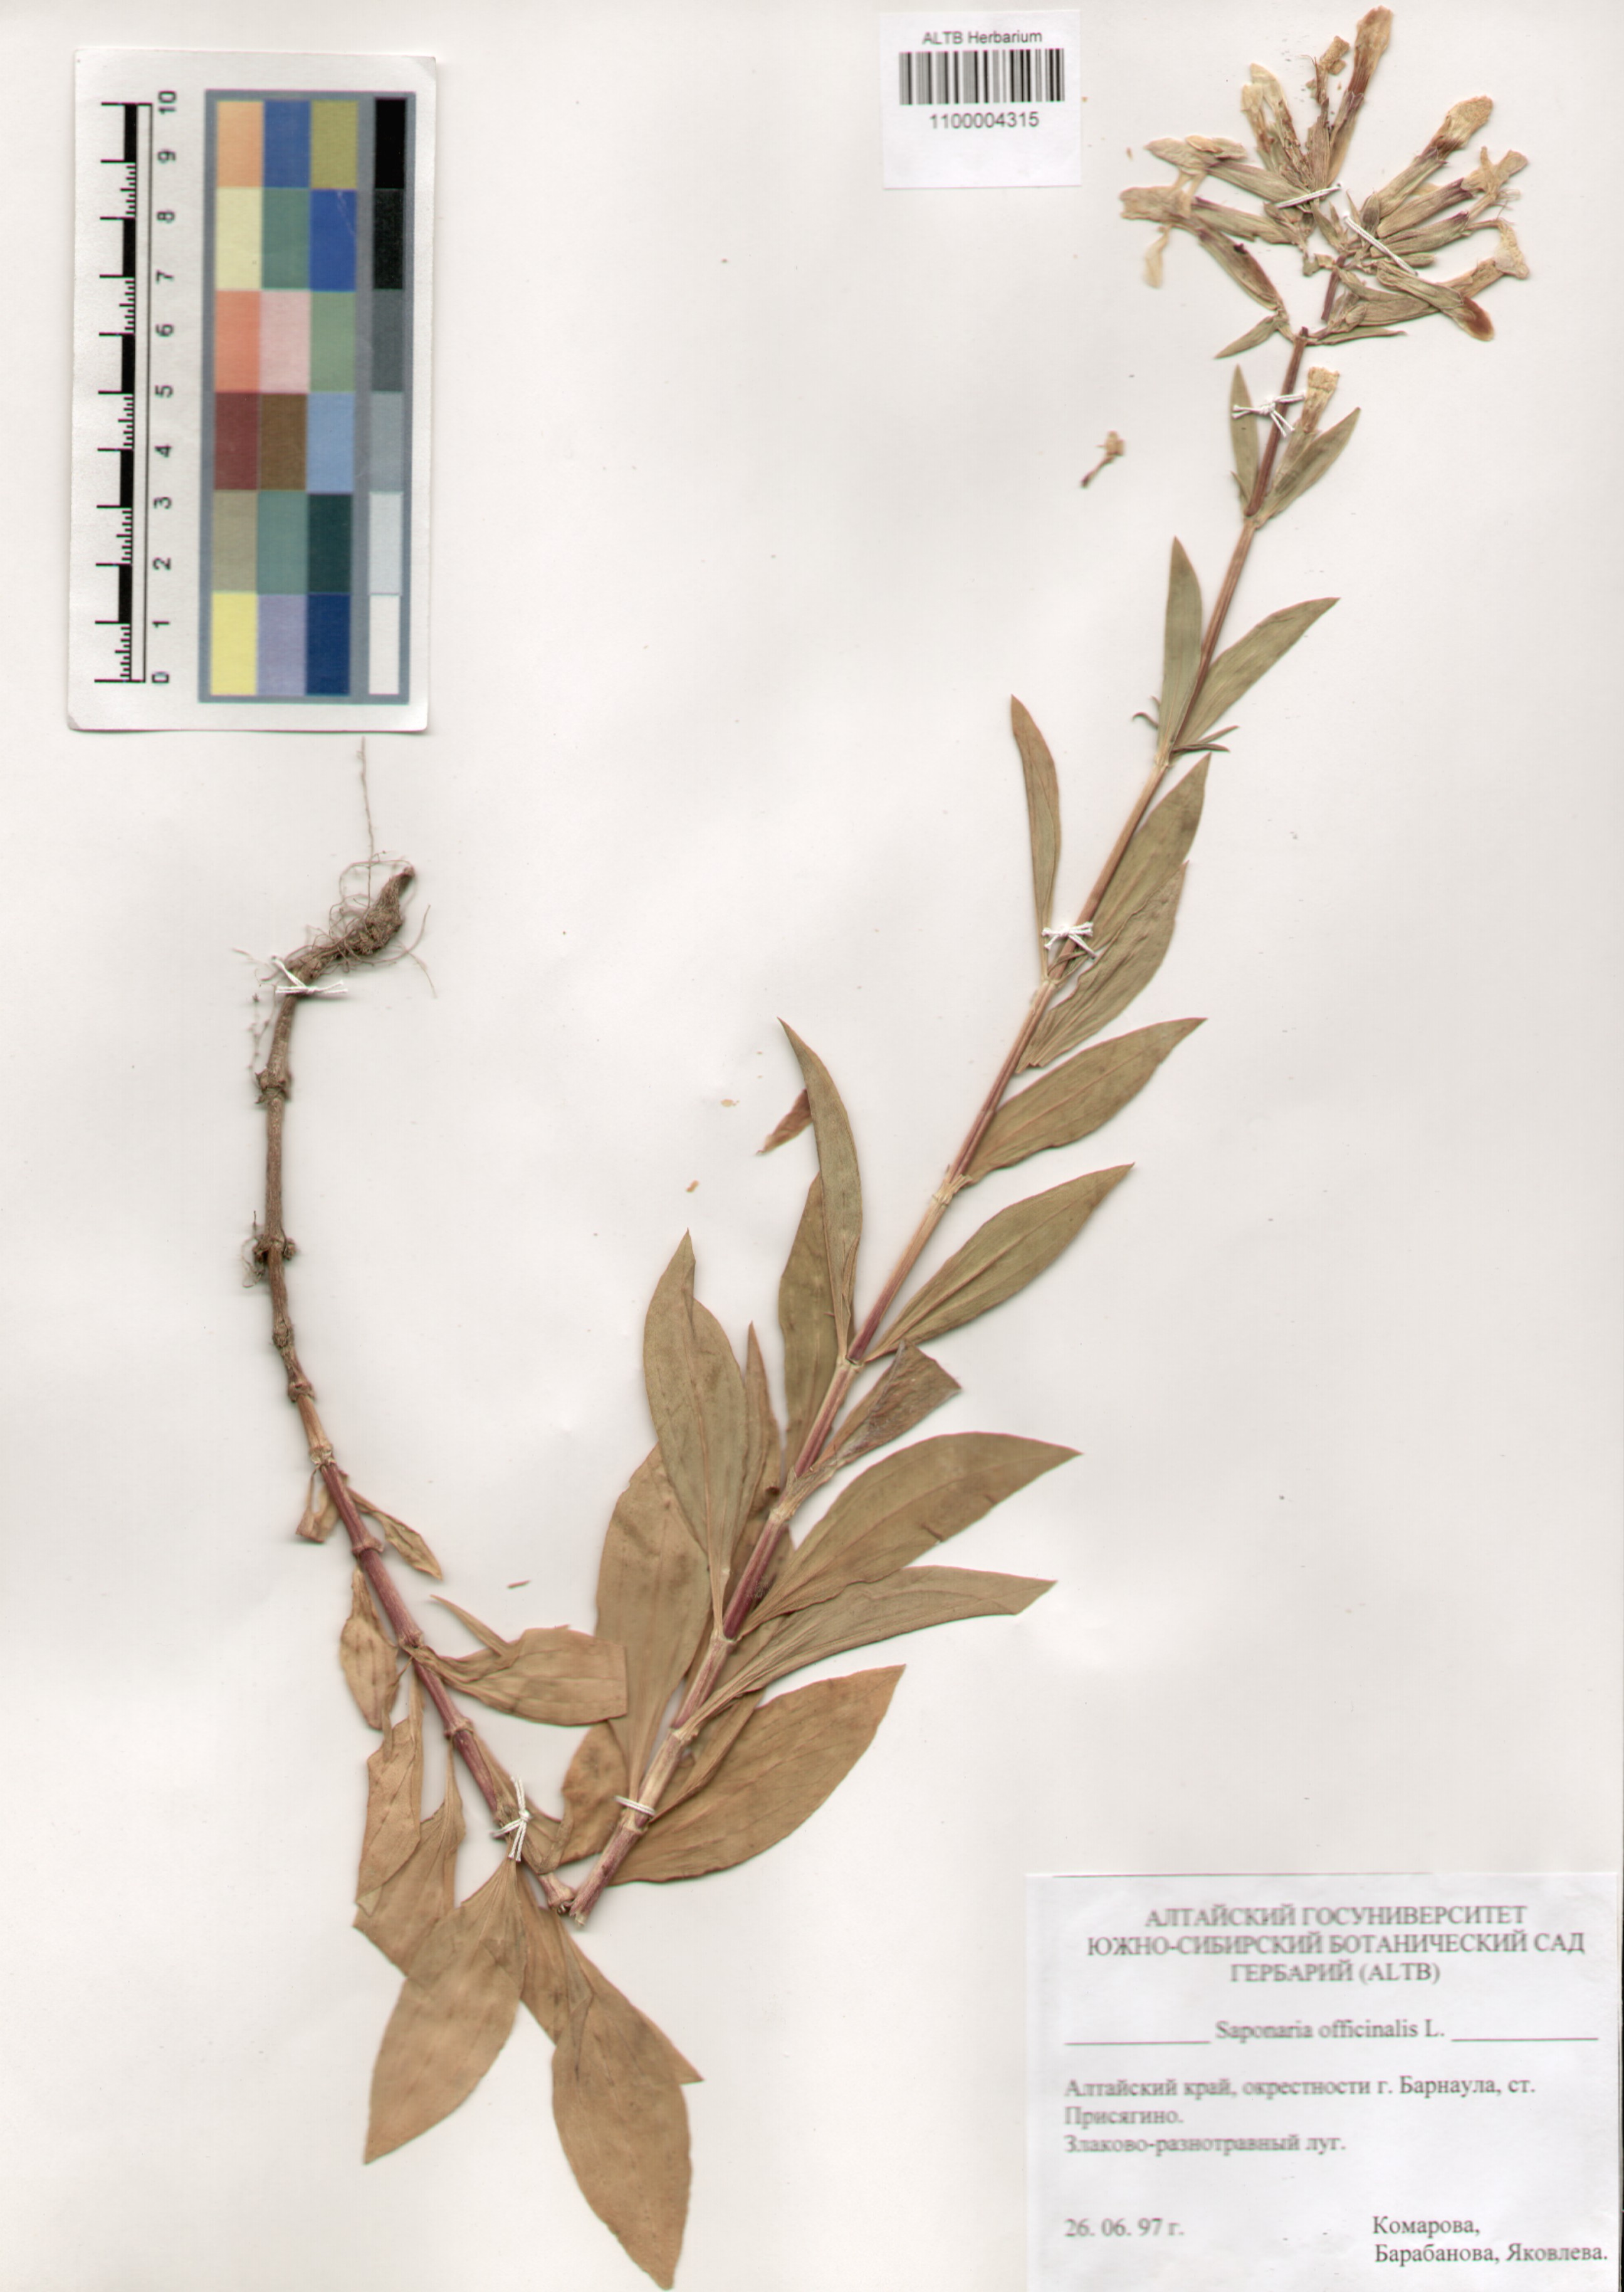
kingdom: Plantae
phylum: Tracheophyta
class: Magnoliopsida
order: Caryophyllales
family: Caryophyllaceae
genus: Saponaria
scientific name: Saponaria officinalis
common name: Soapwort
